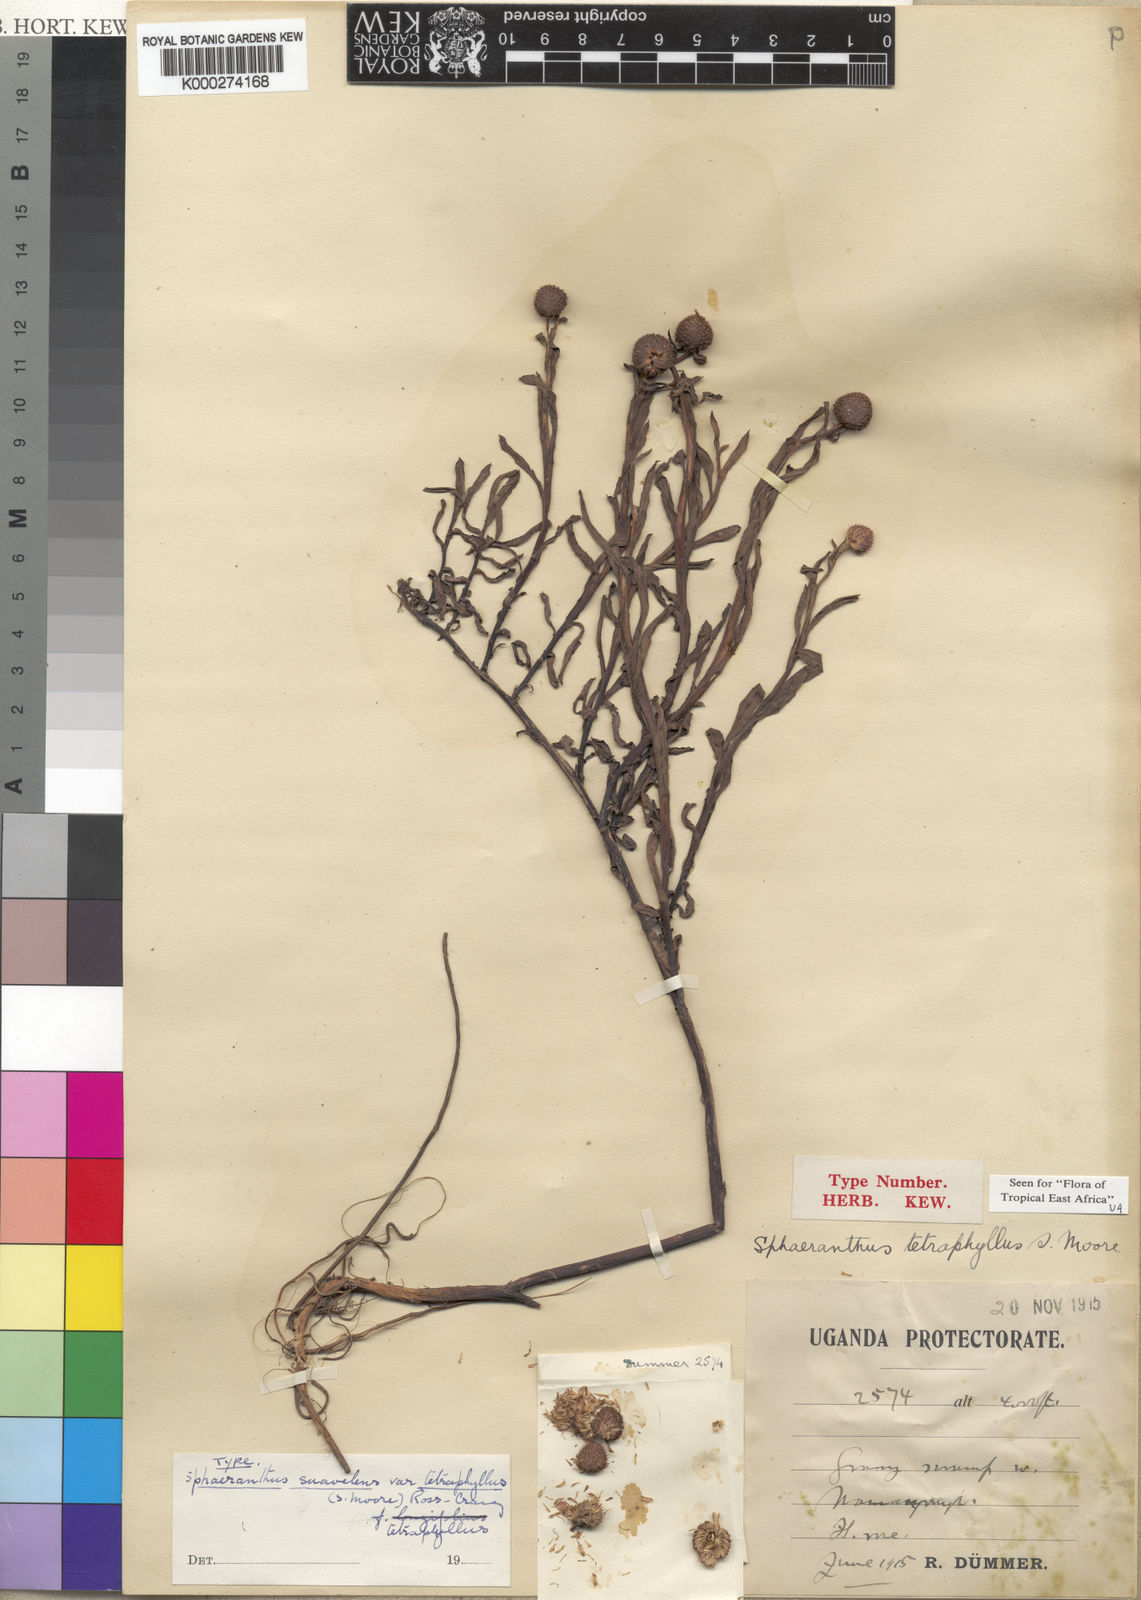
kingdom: Plantae
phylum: Tracheophyta
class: Magnoliopsida
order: Asterales
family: Asteraceae
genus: Sphaeranthus
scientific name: Sphaeranthus suaveolens
